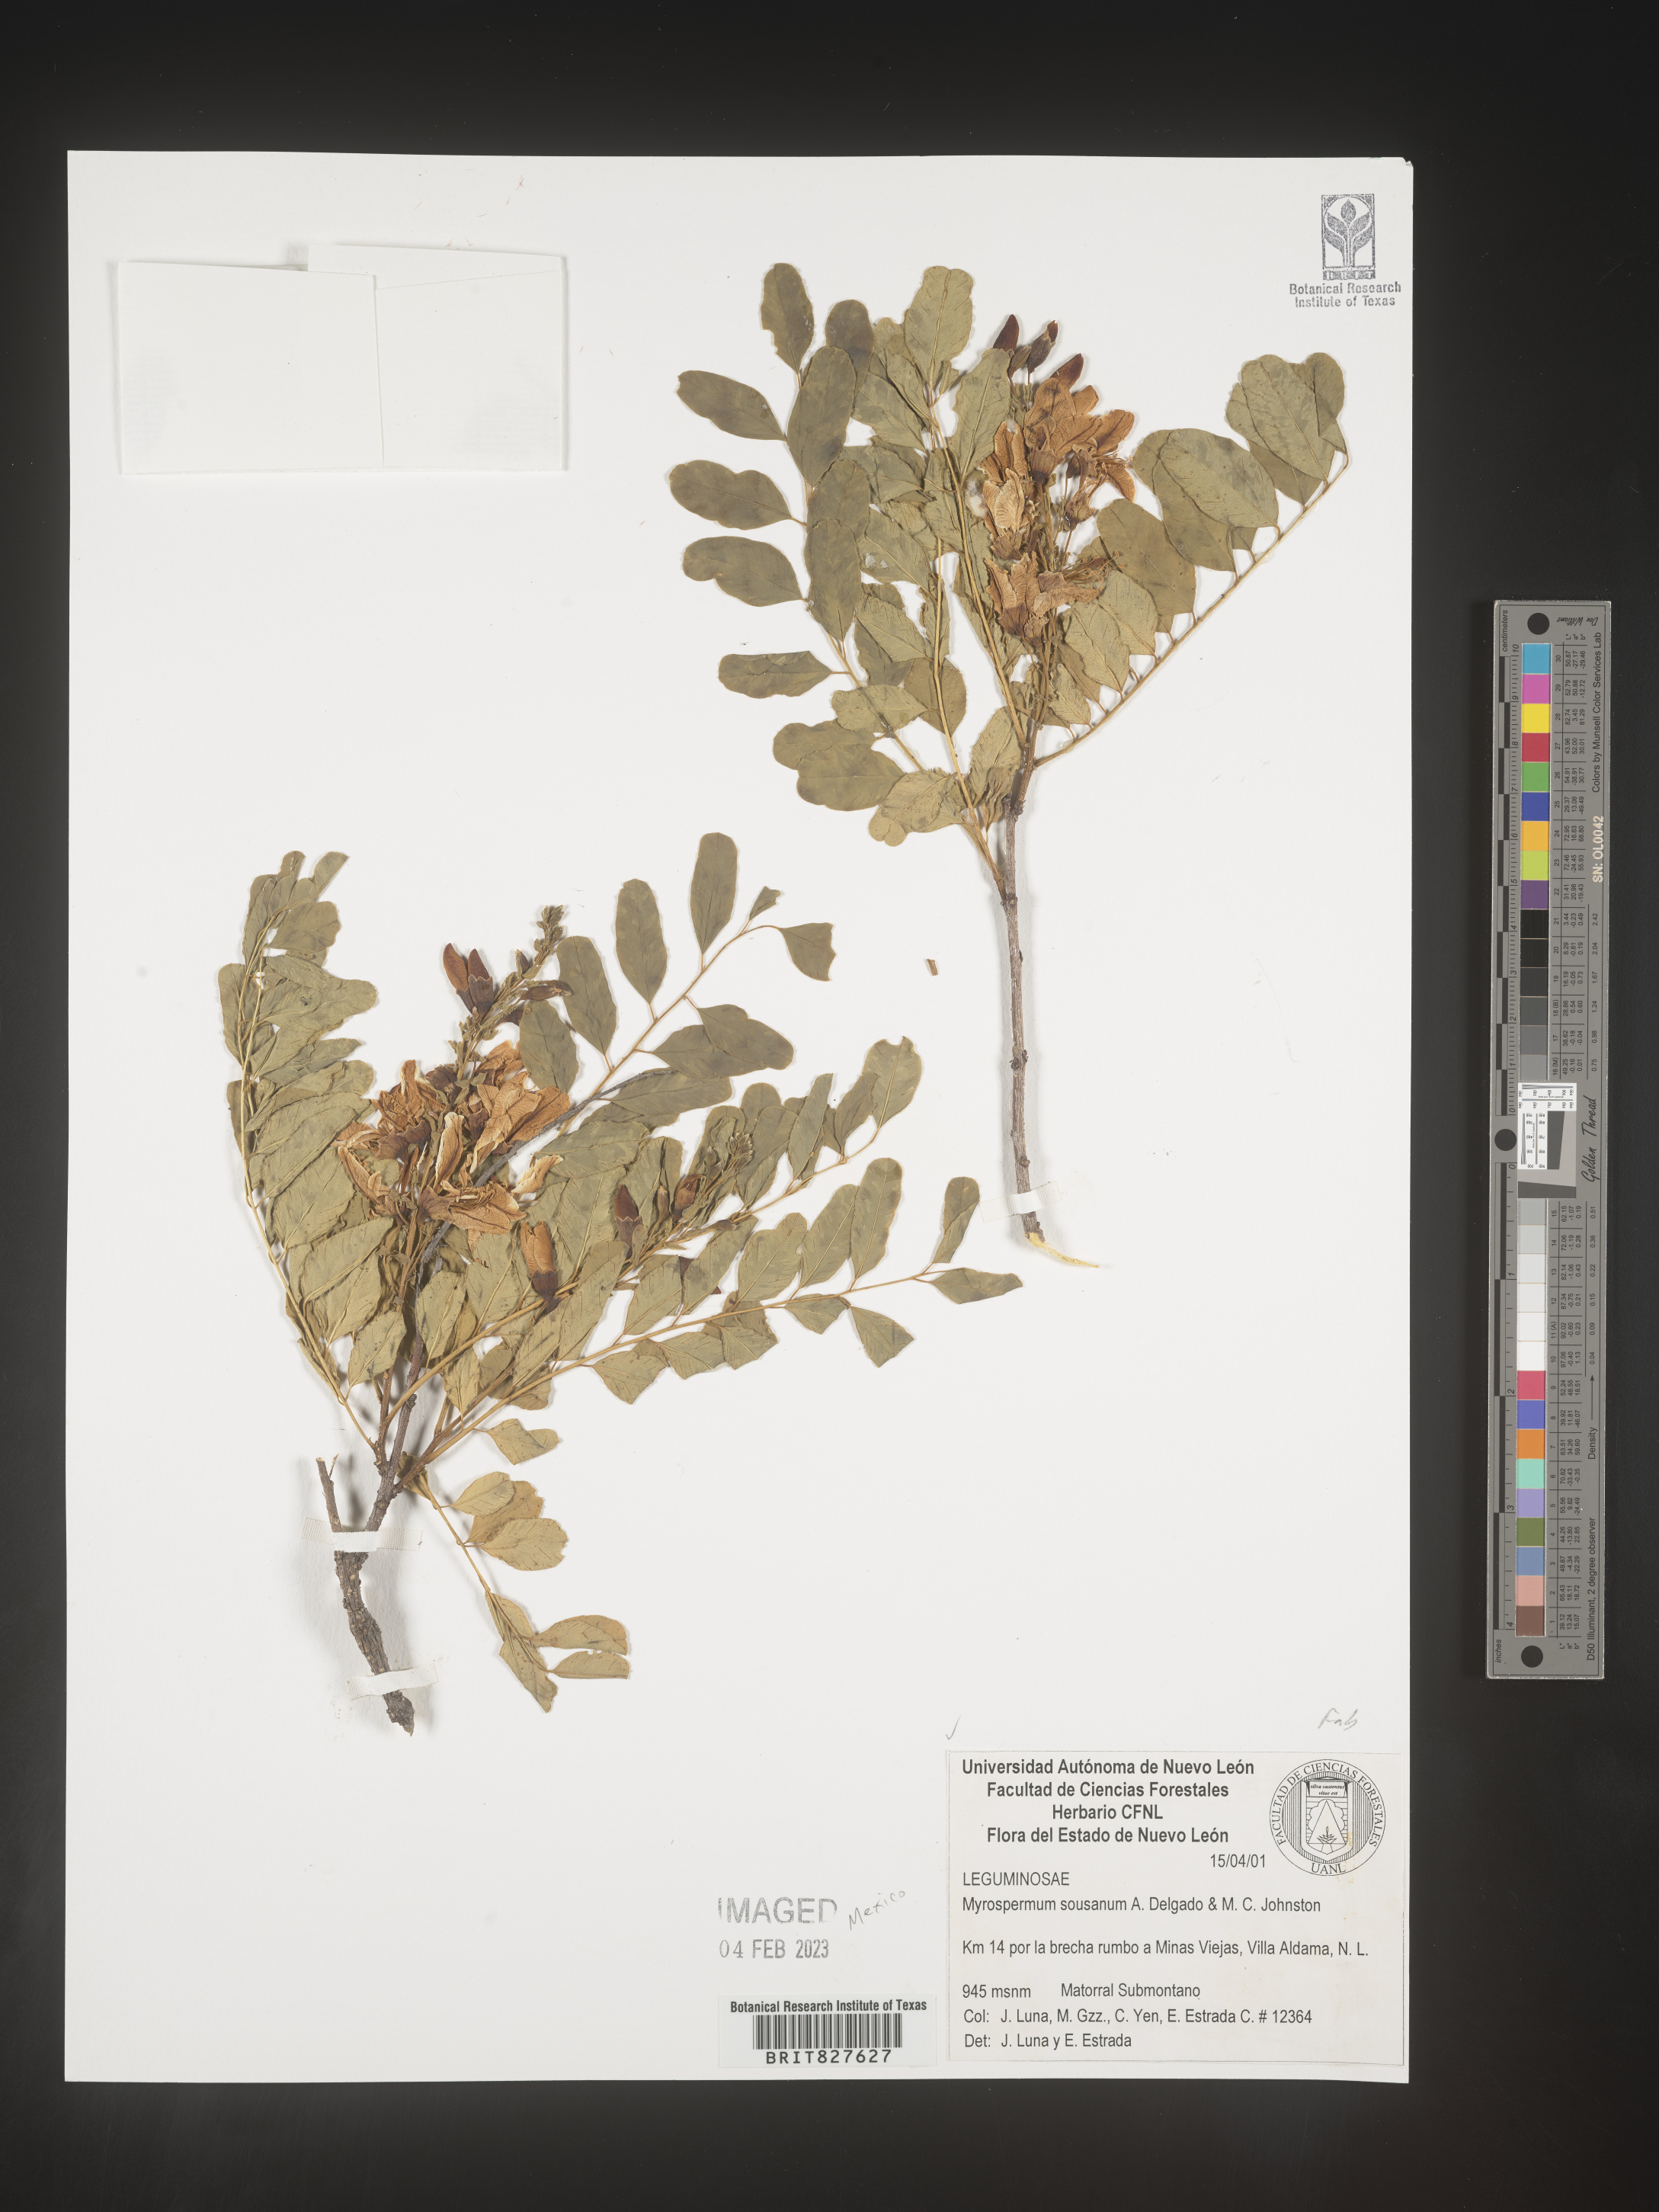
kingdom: Plantae
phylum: Tracheophyta
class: Magnoliopsida
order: Fabales
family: Fabaceae
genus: Myrospermum
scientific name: Myrospermum
